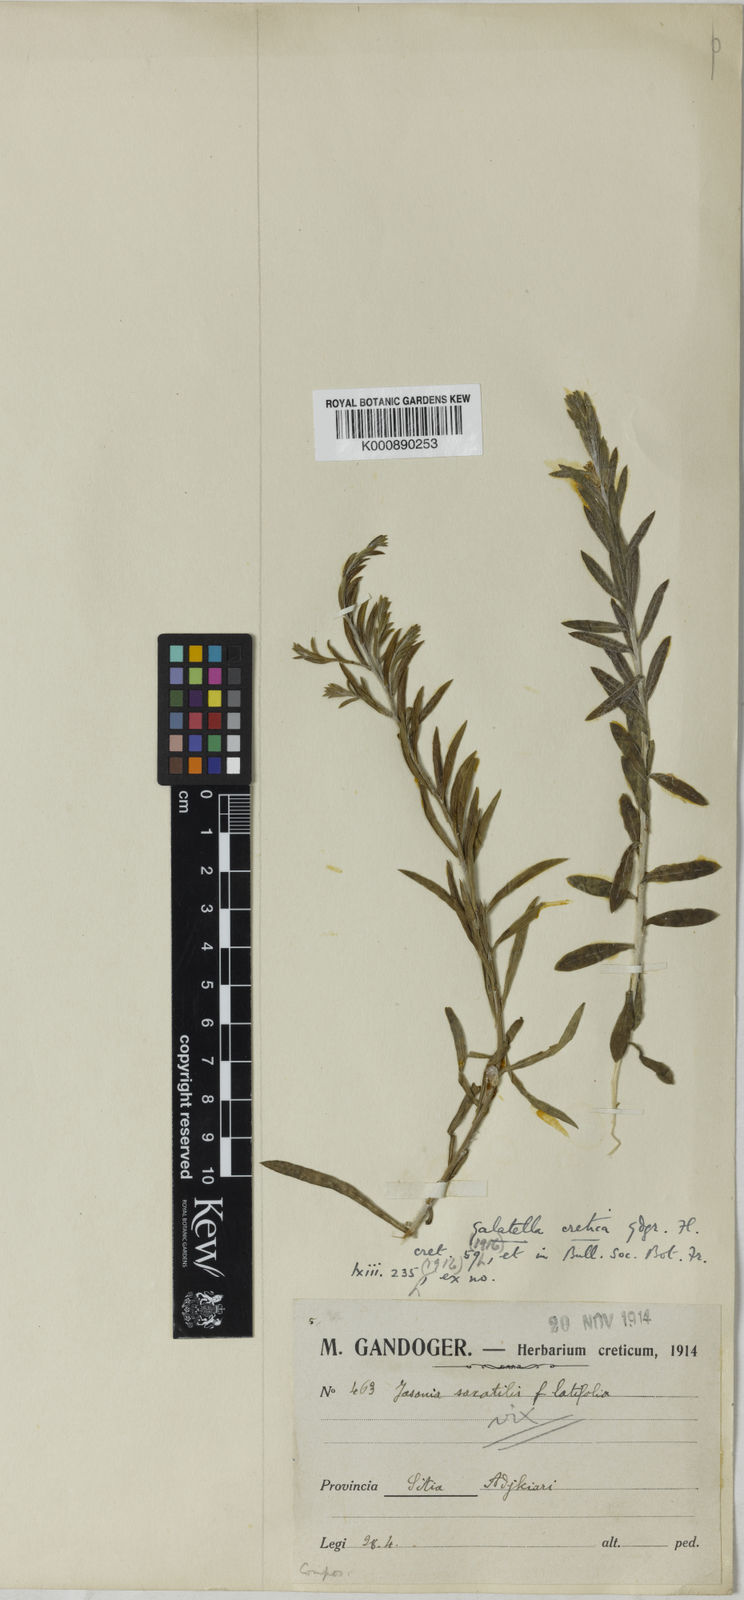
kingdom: Plantae
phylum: Tracheophyta
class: Magnoliopsida
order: Asterales
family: Asteraceae
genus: Galatella
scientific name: Galatella cretica
